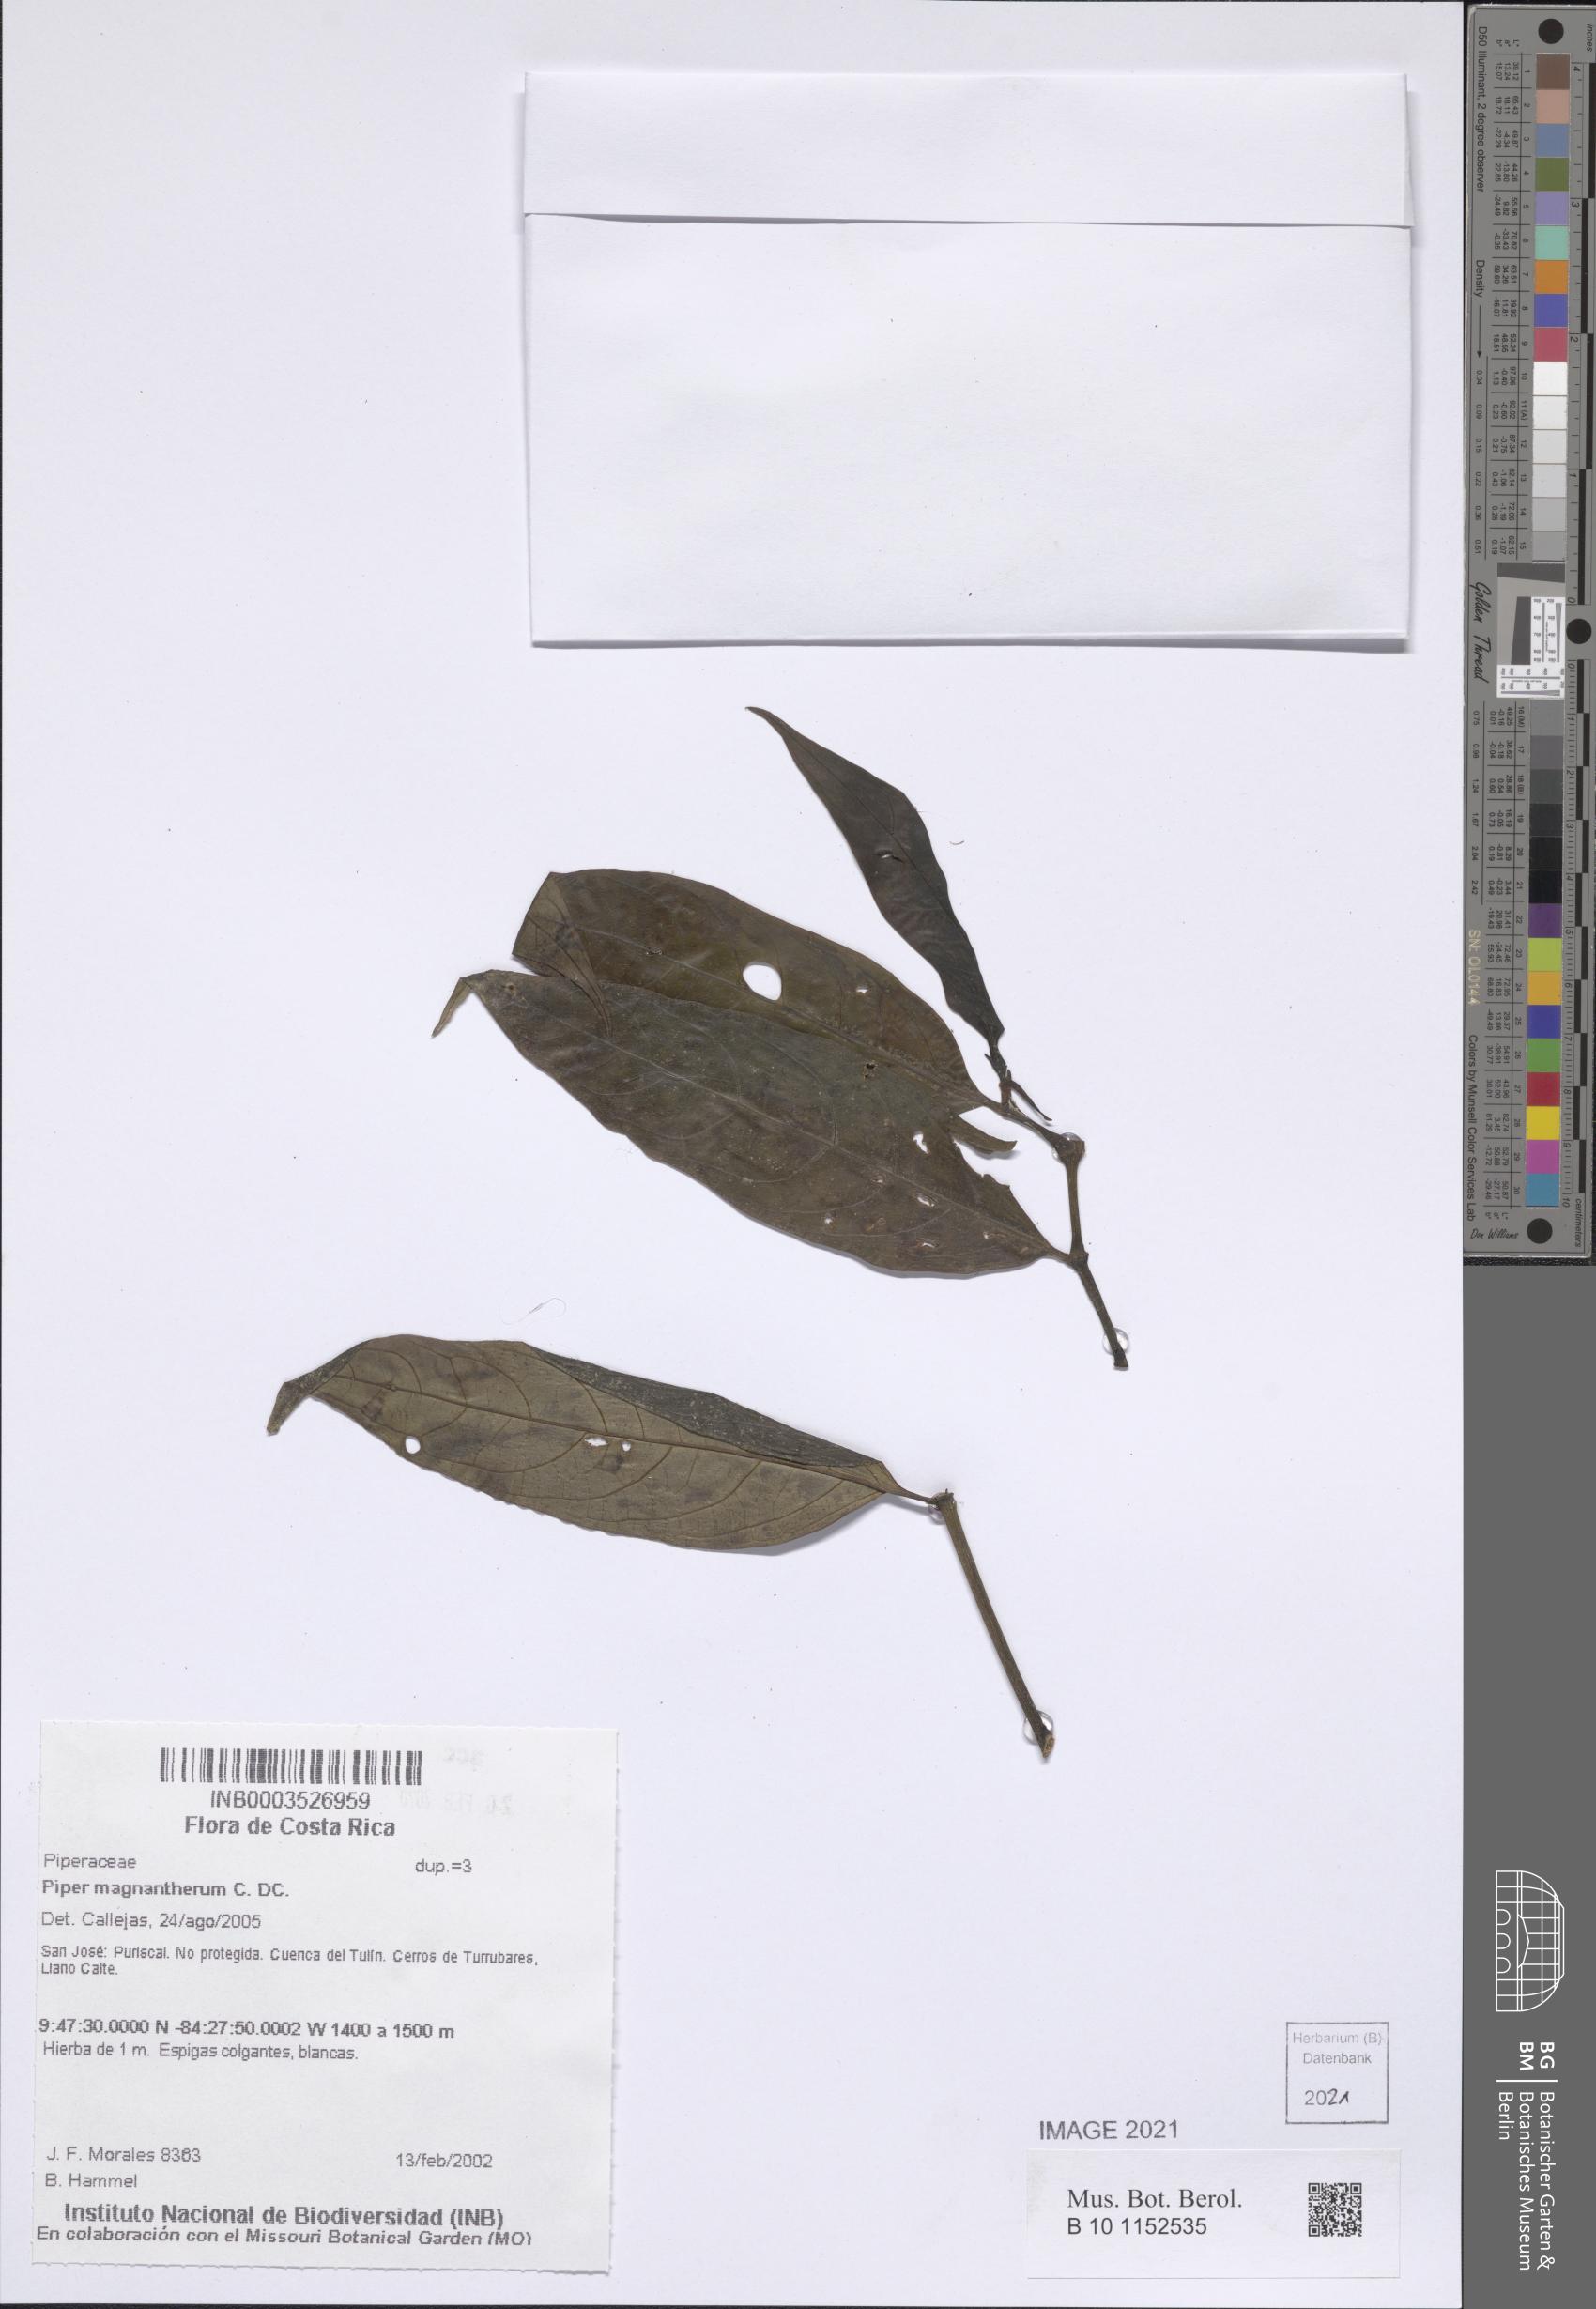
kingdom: Plantae
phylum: Tracheophyta
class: Magnoliopsida
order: Piperales
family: Piperaceae
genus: Piper
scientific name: Piper magnantherum
